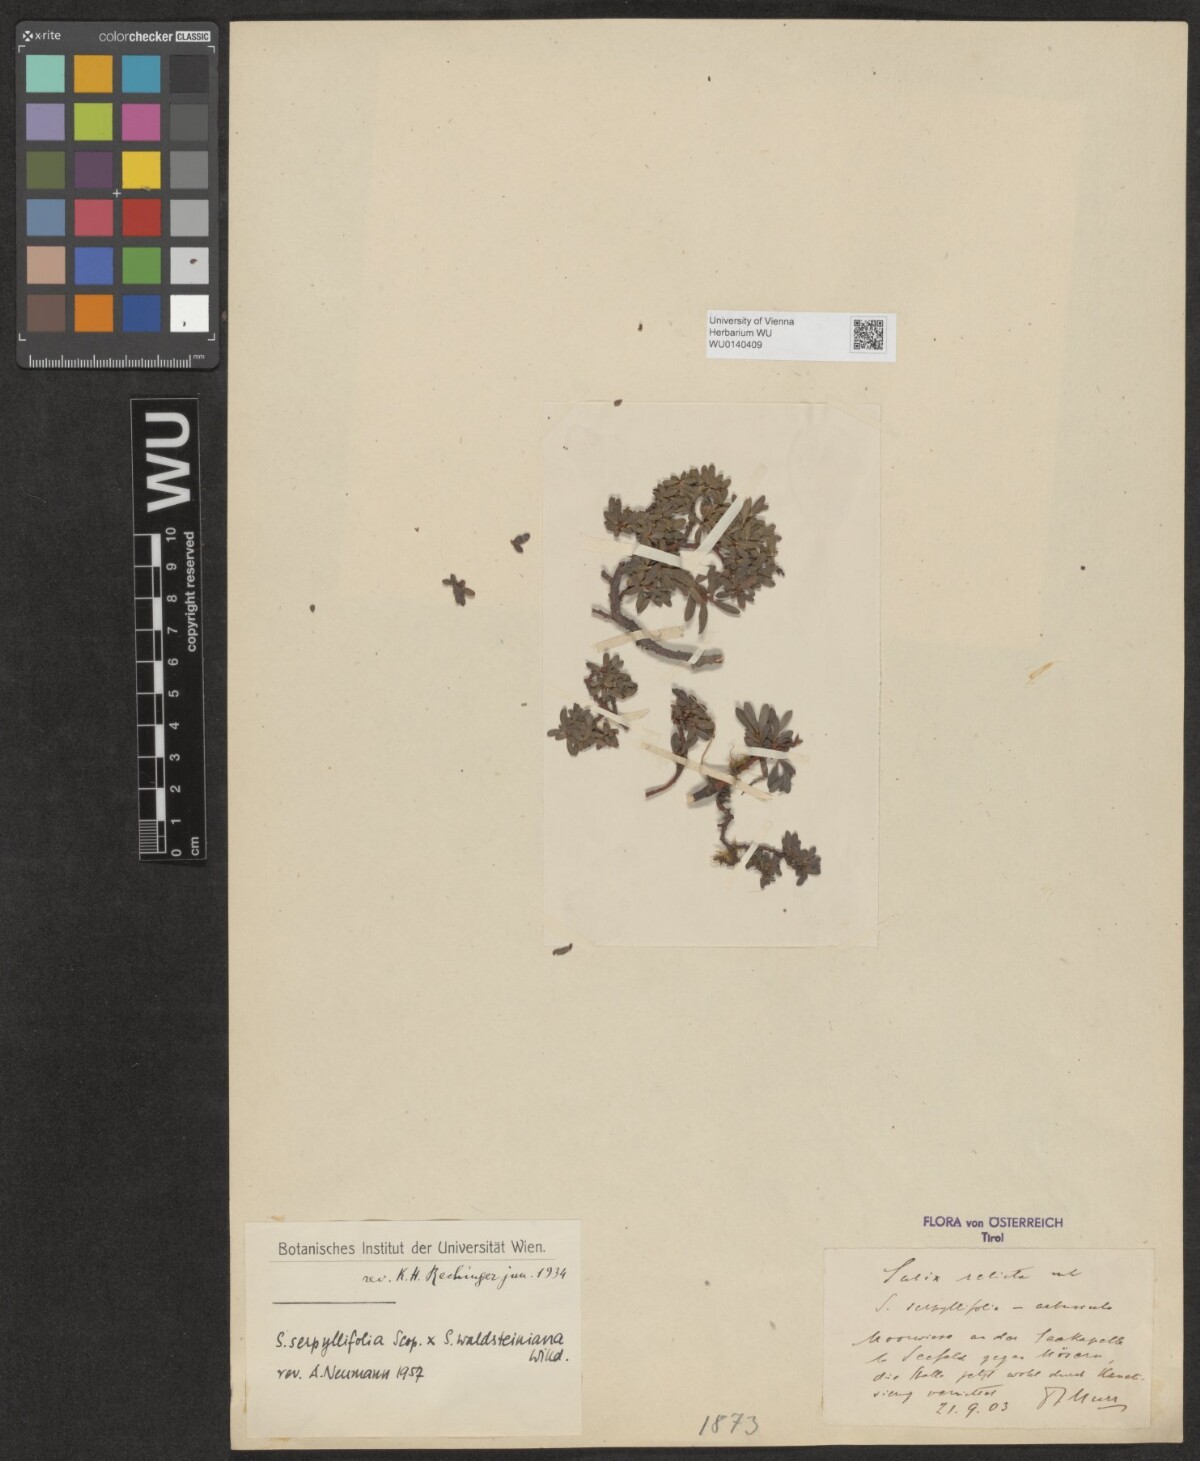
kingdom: Plantae
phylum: Tracheophyta
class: Magnoliopsida
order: Malpighiales
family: Salicaceae
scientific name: Salicaceae
